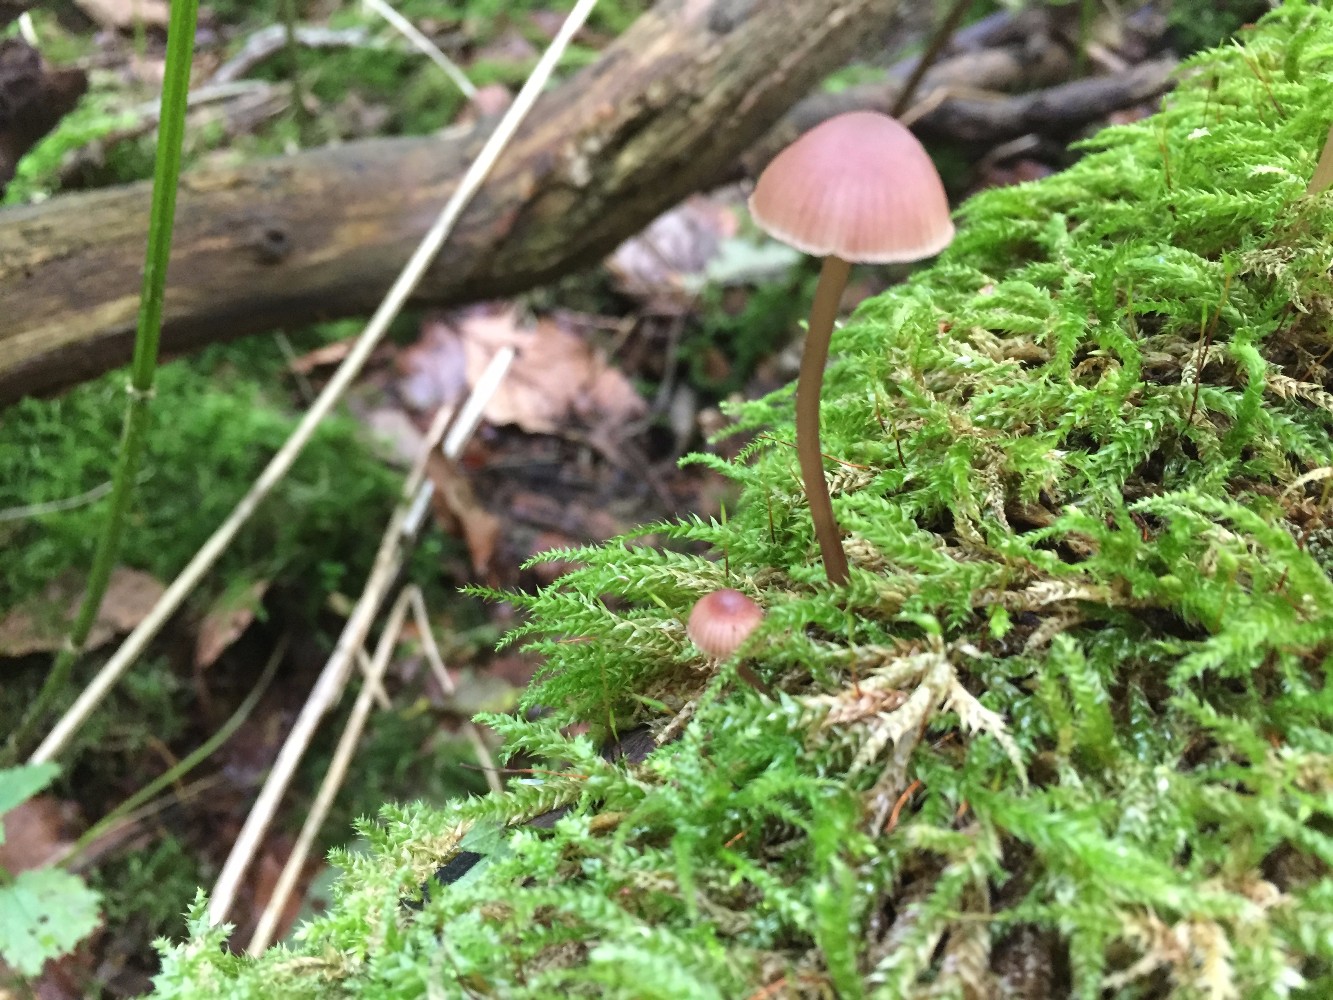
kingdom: Fungi
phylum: Basidiomycota
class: Agaricomycetes
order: Agaricales
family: Mycenaceae
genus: Mycena
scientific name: Mycena haematopus
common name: blødende huesvamp
